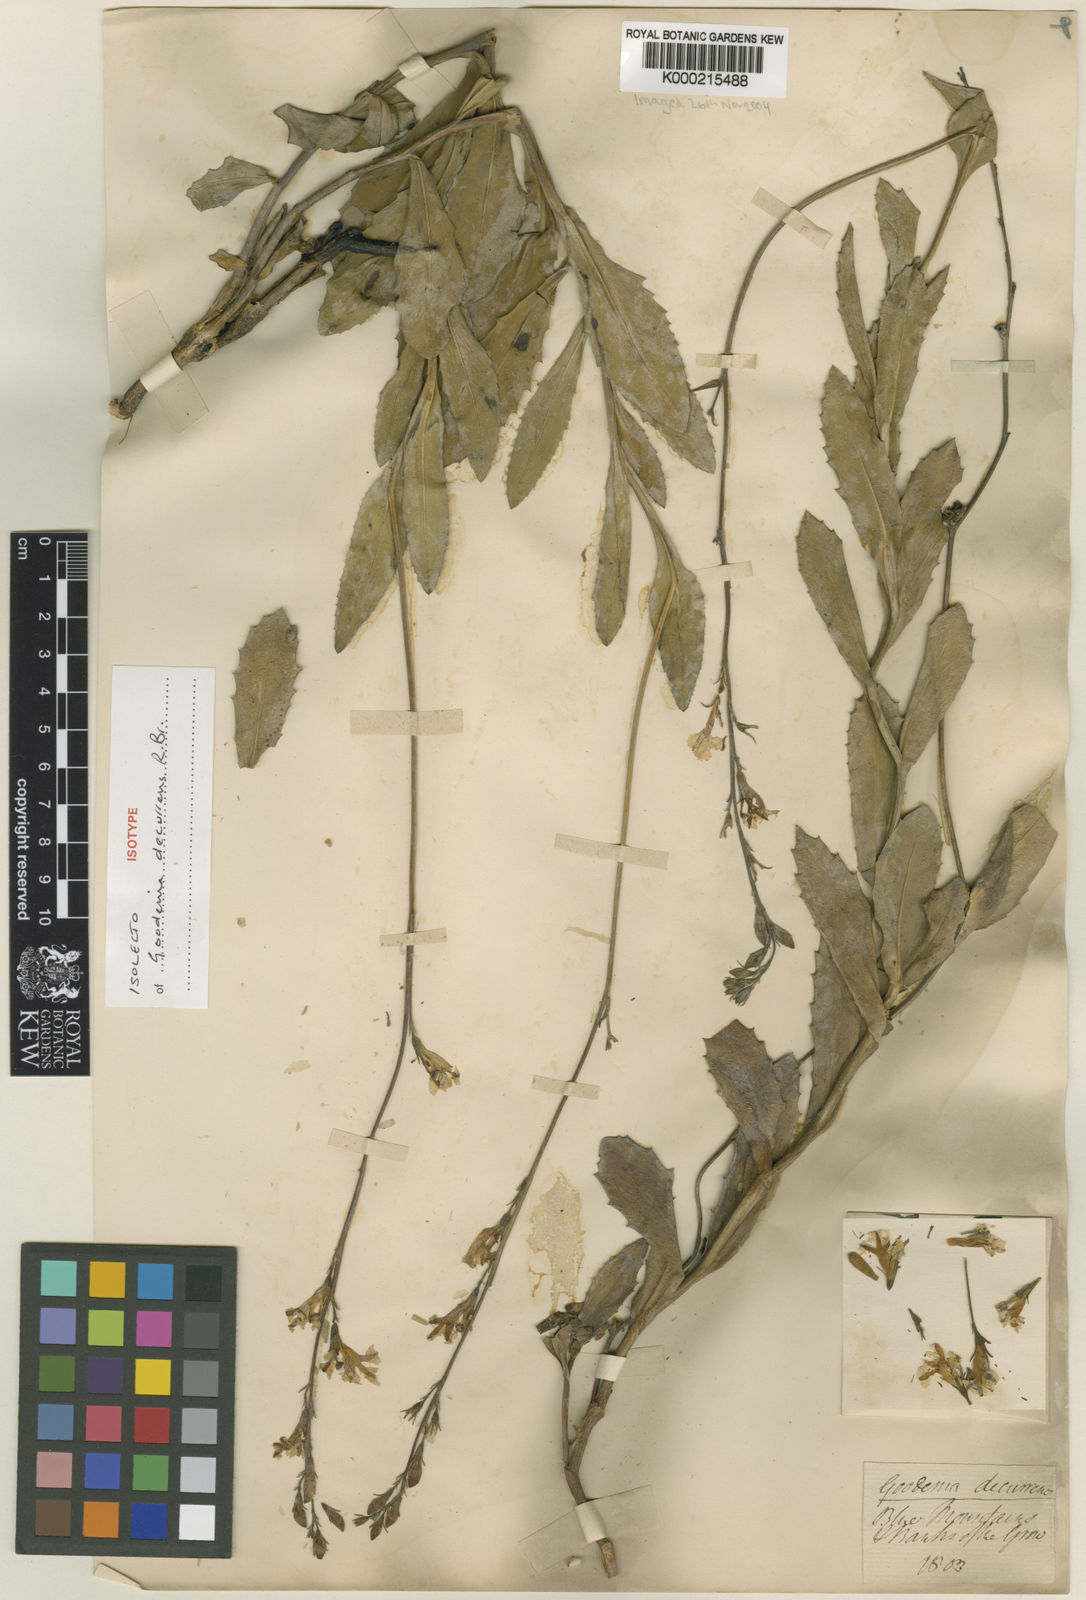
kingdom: Plantae
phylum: Tracheophyta
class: Magnoliopsida
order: Asterales
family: Goodeniaceae
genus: Goodenia
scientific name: Goodenia decurrens
